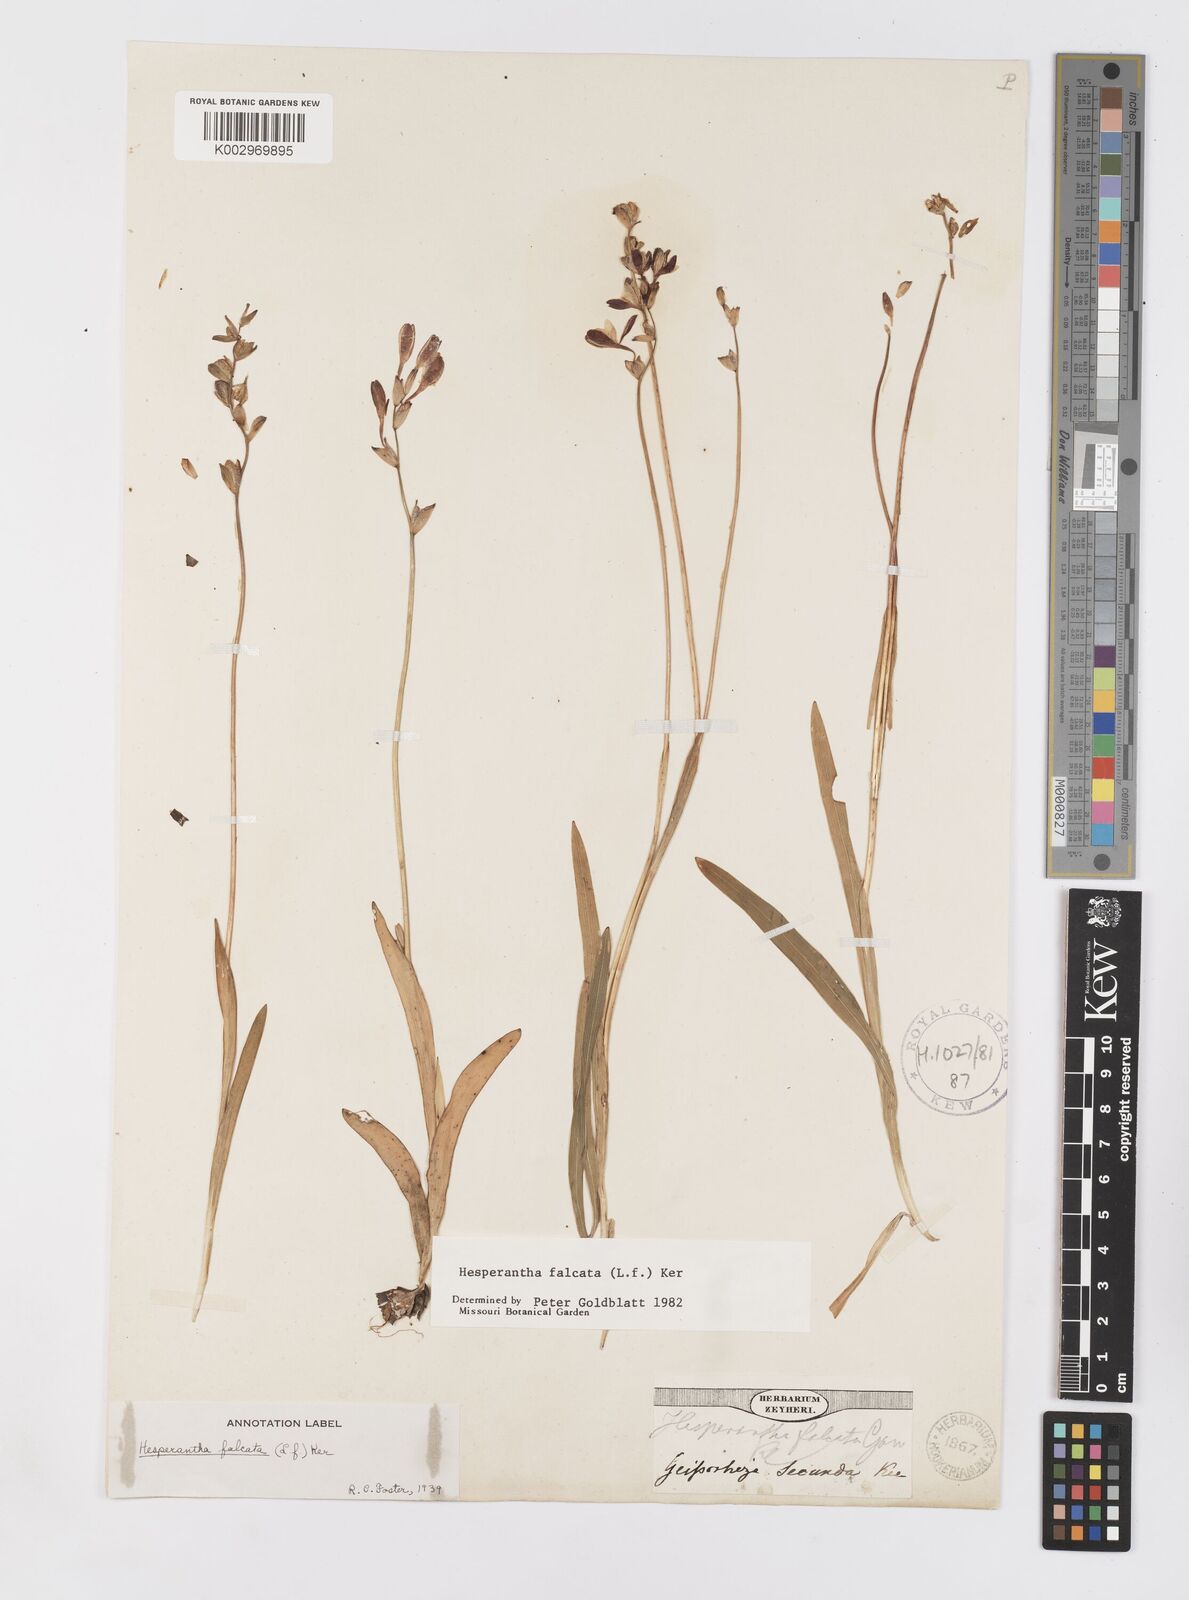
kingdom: Plantae
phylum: Tracheophyta
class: Liliopsida
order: Asparagales
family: Iridaceae
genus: Hesperantha
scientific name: Hesperantha falcata
